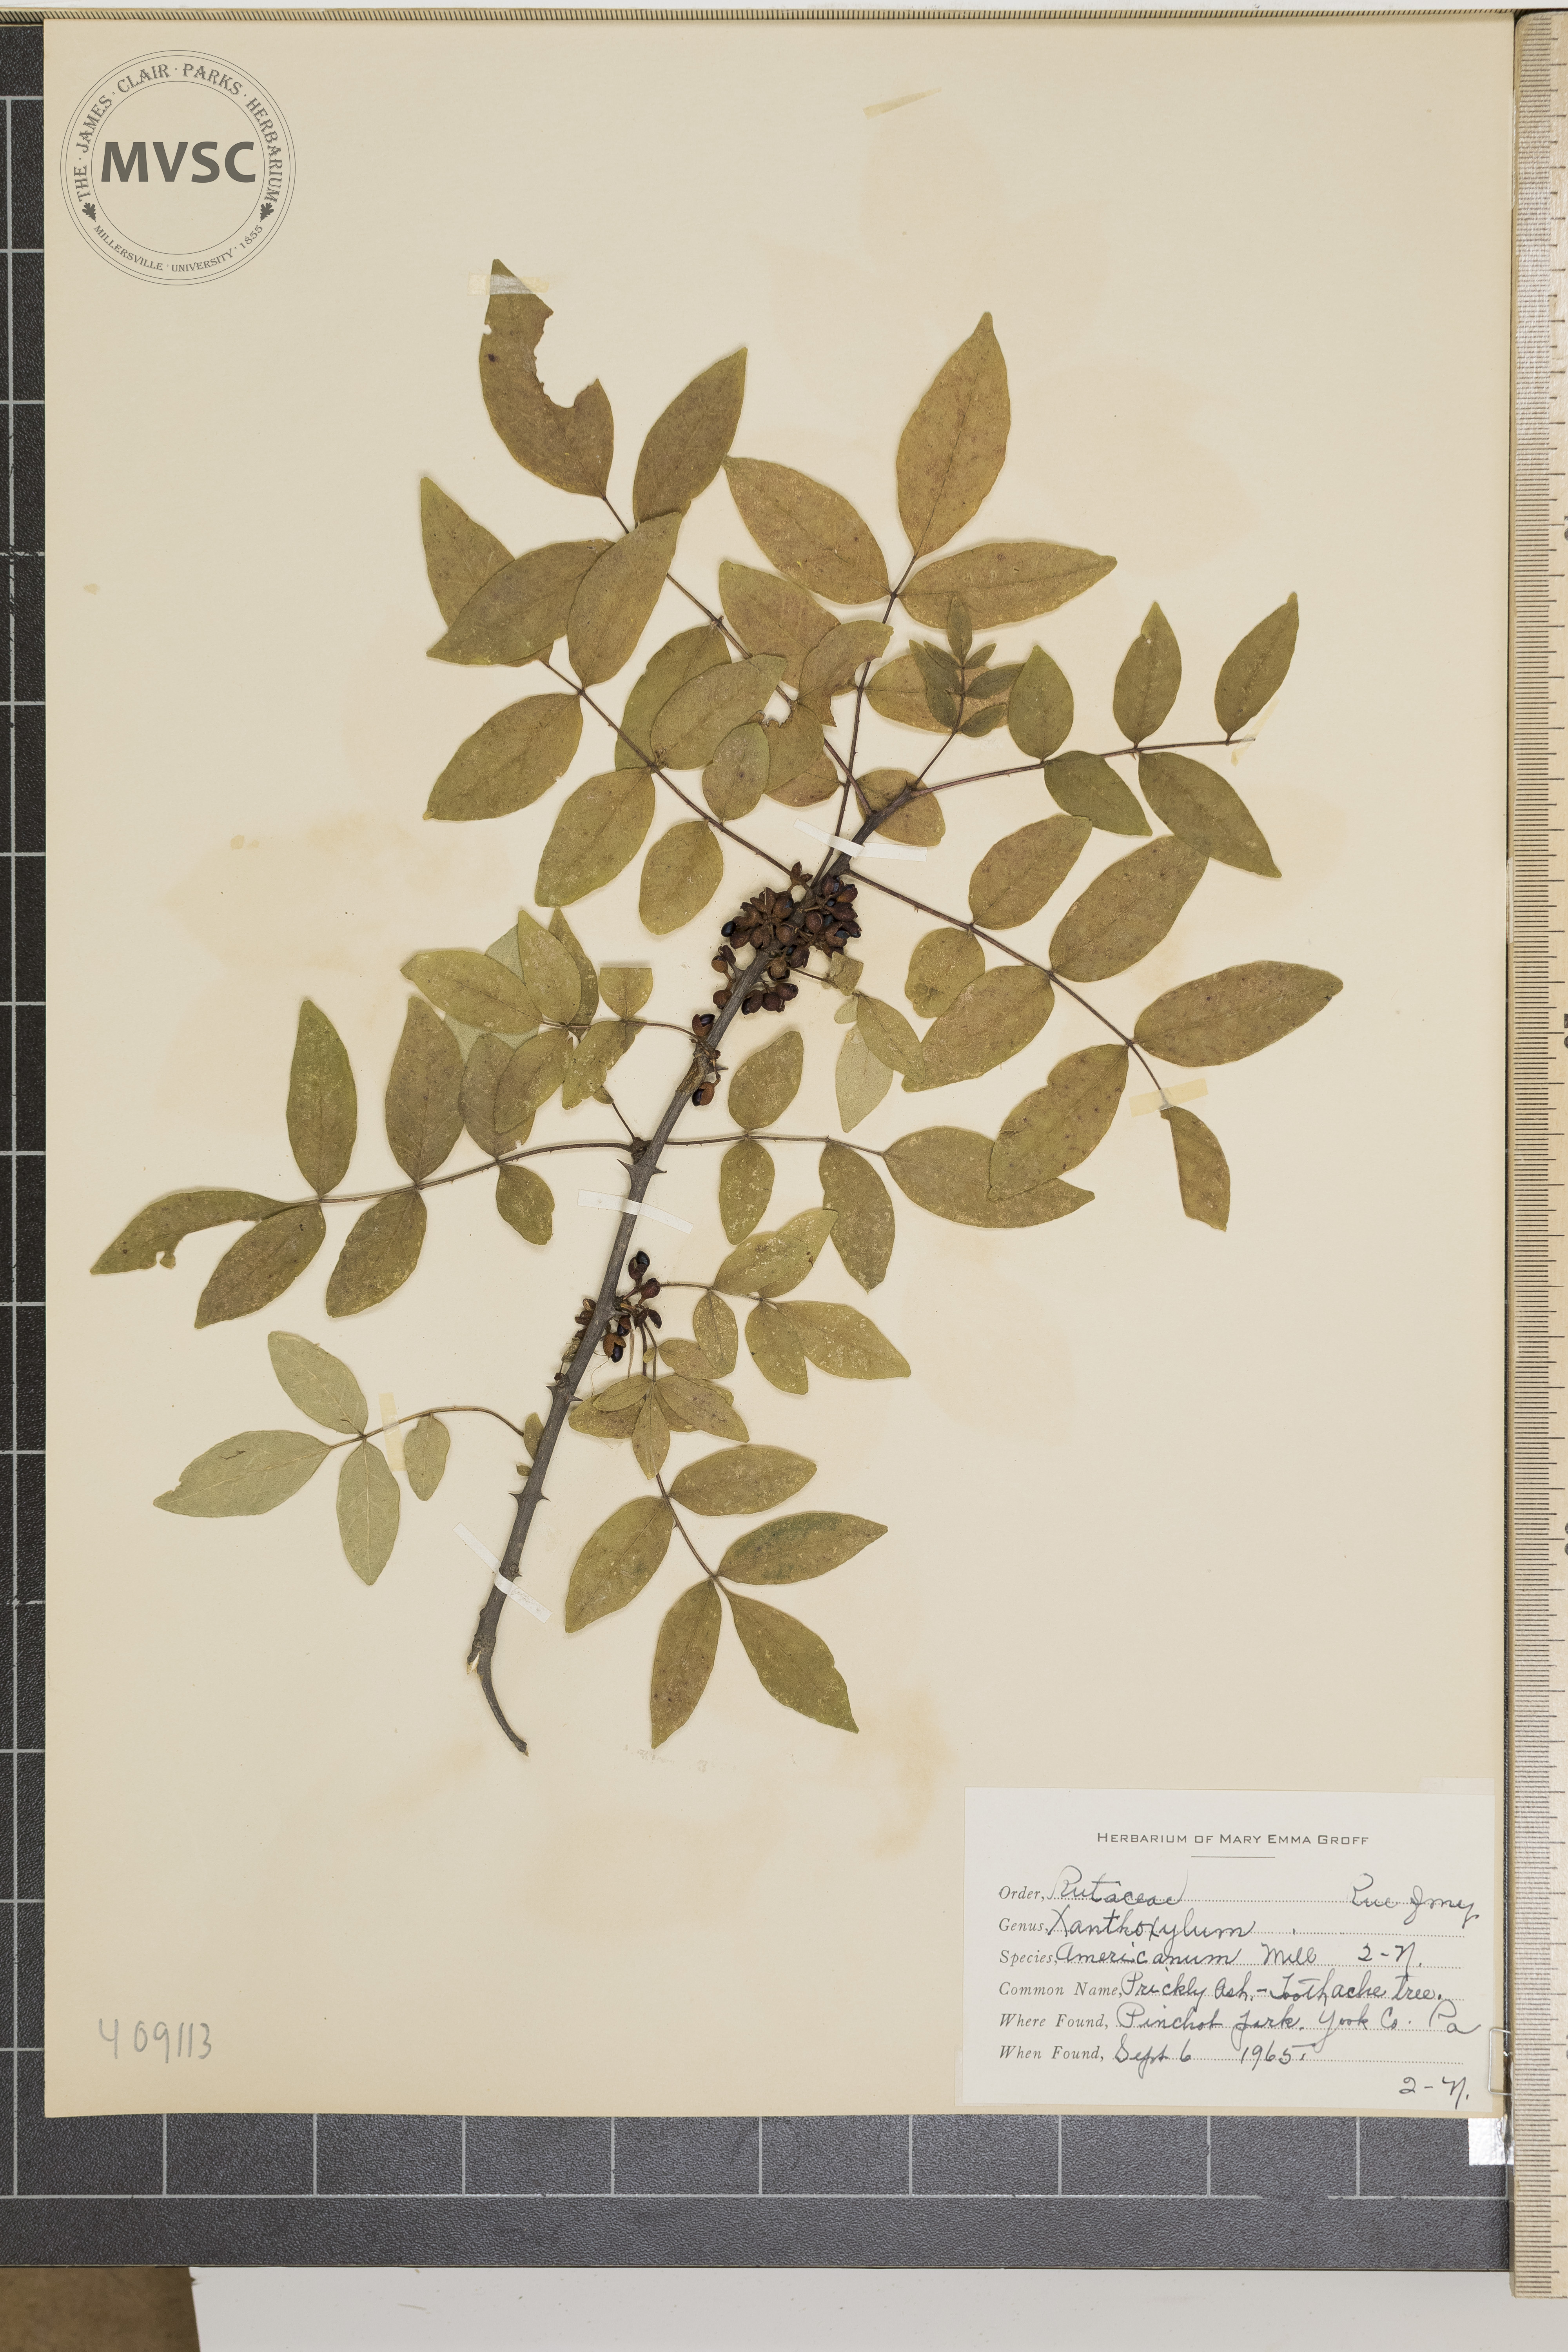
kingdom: Plantae
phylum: Tracheophyta
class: Magnoliopsida
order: Sapindales
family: Rutaceae
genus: Zanthoxylum
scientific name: Zanthoxylum americanum
